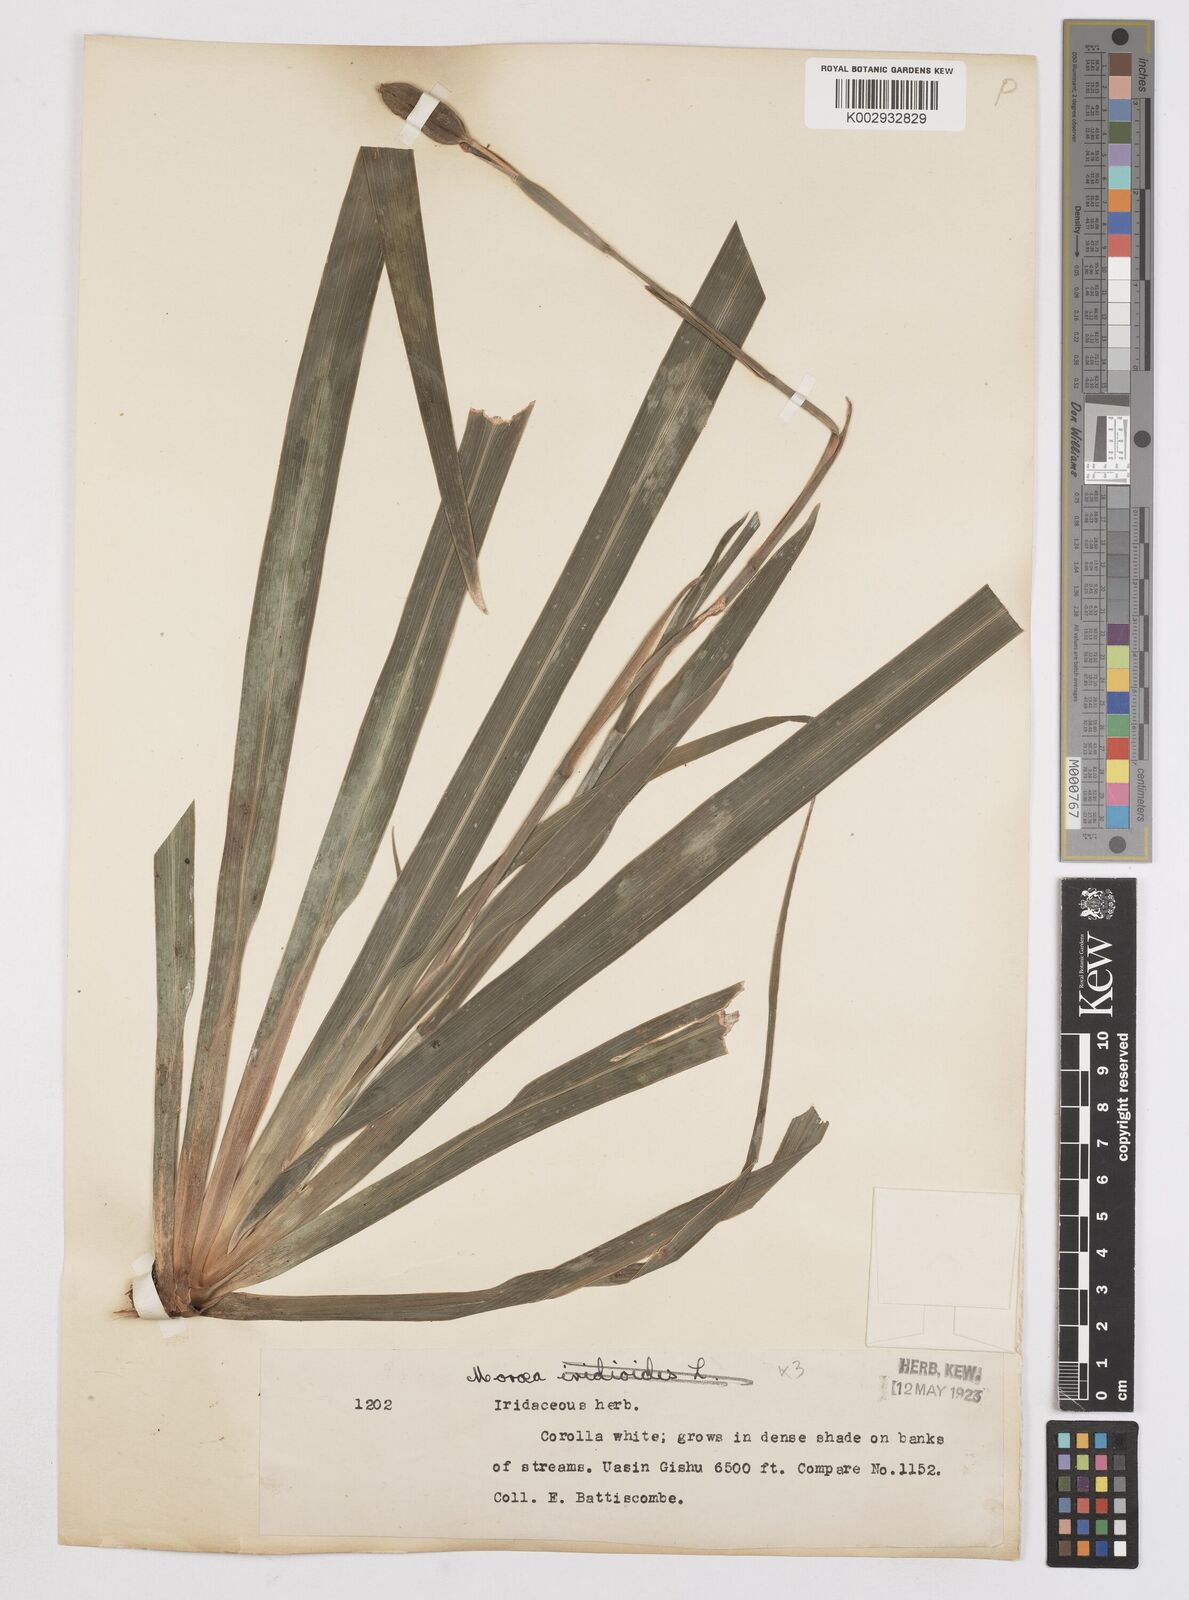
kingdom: Plantae
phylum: Tracheophyta
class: Liliopsida
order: Asparagales
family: Iridaceae
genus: Dietes
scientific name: Dietes iridioides
